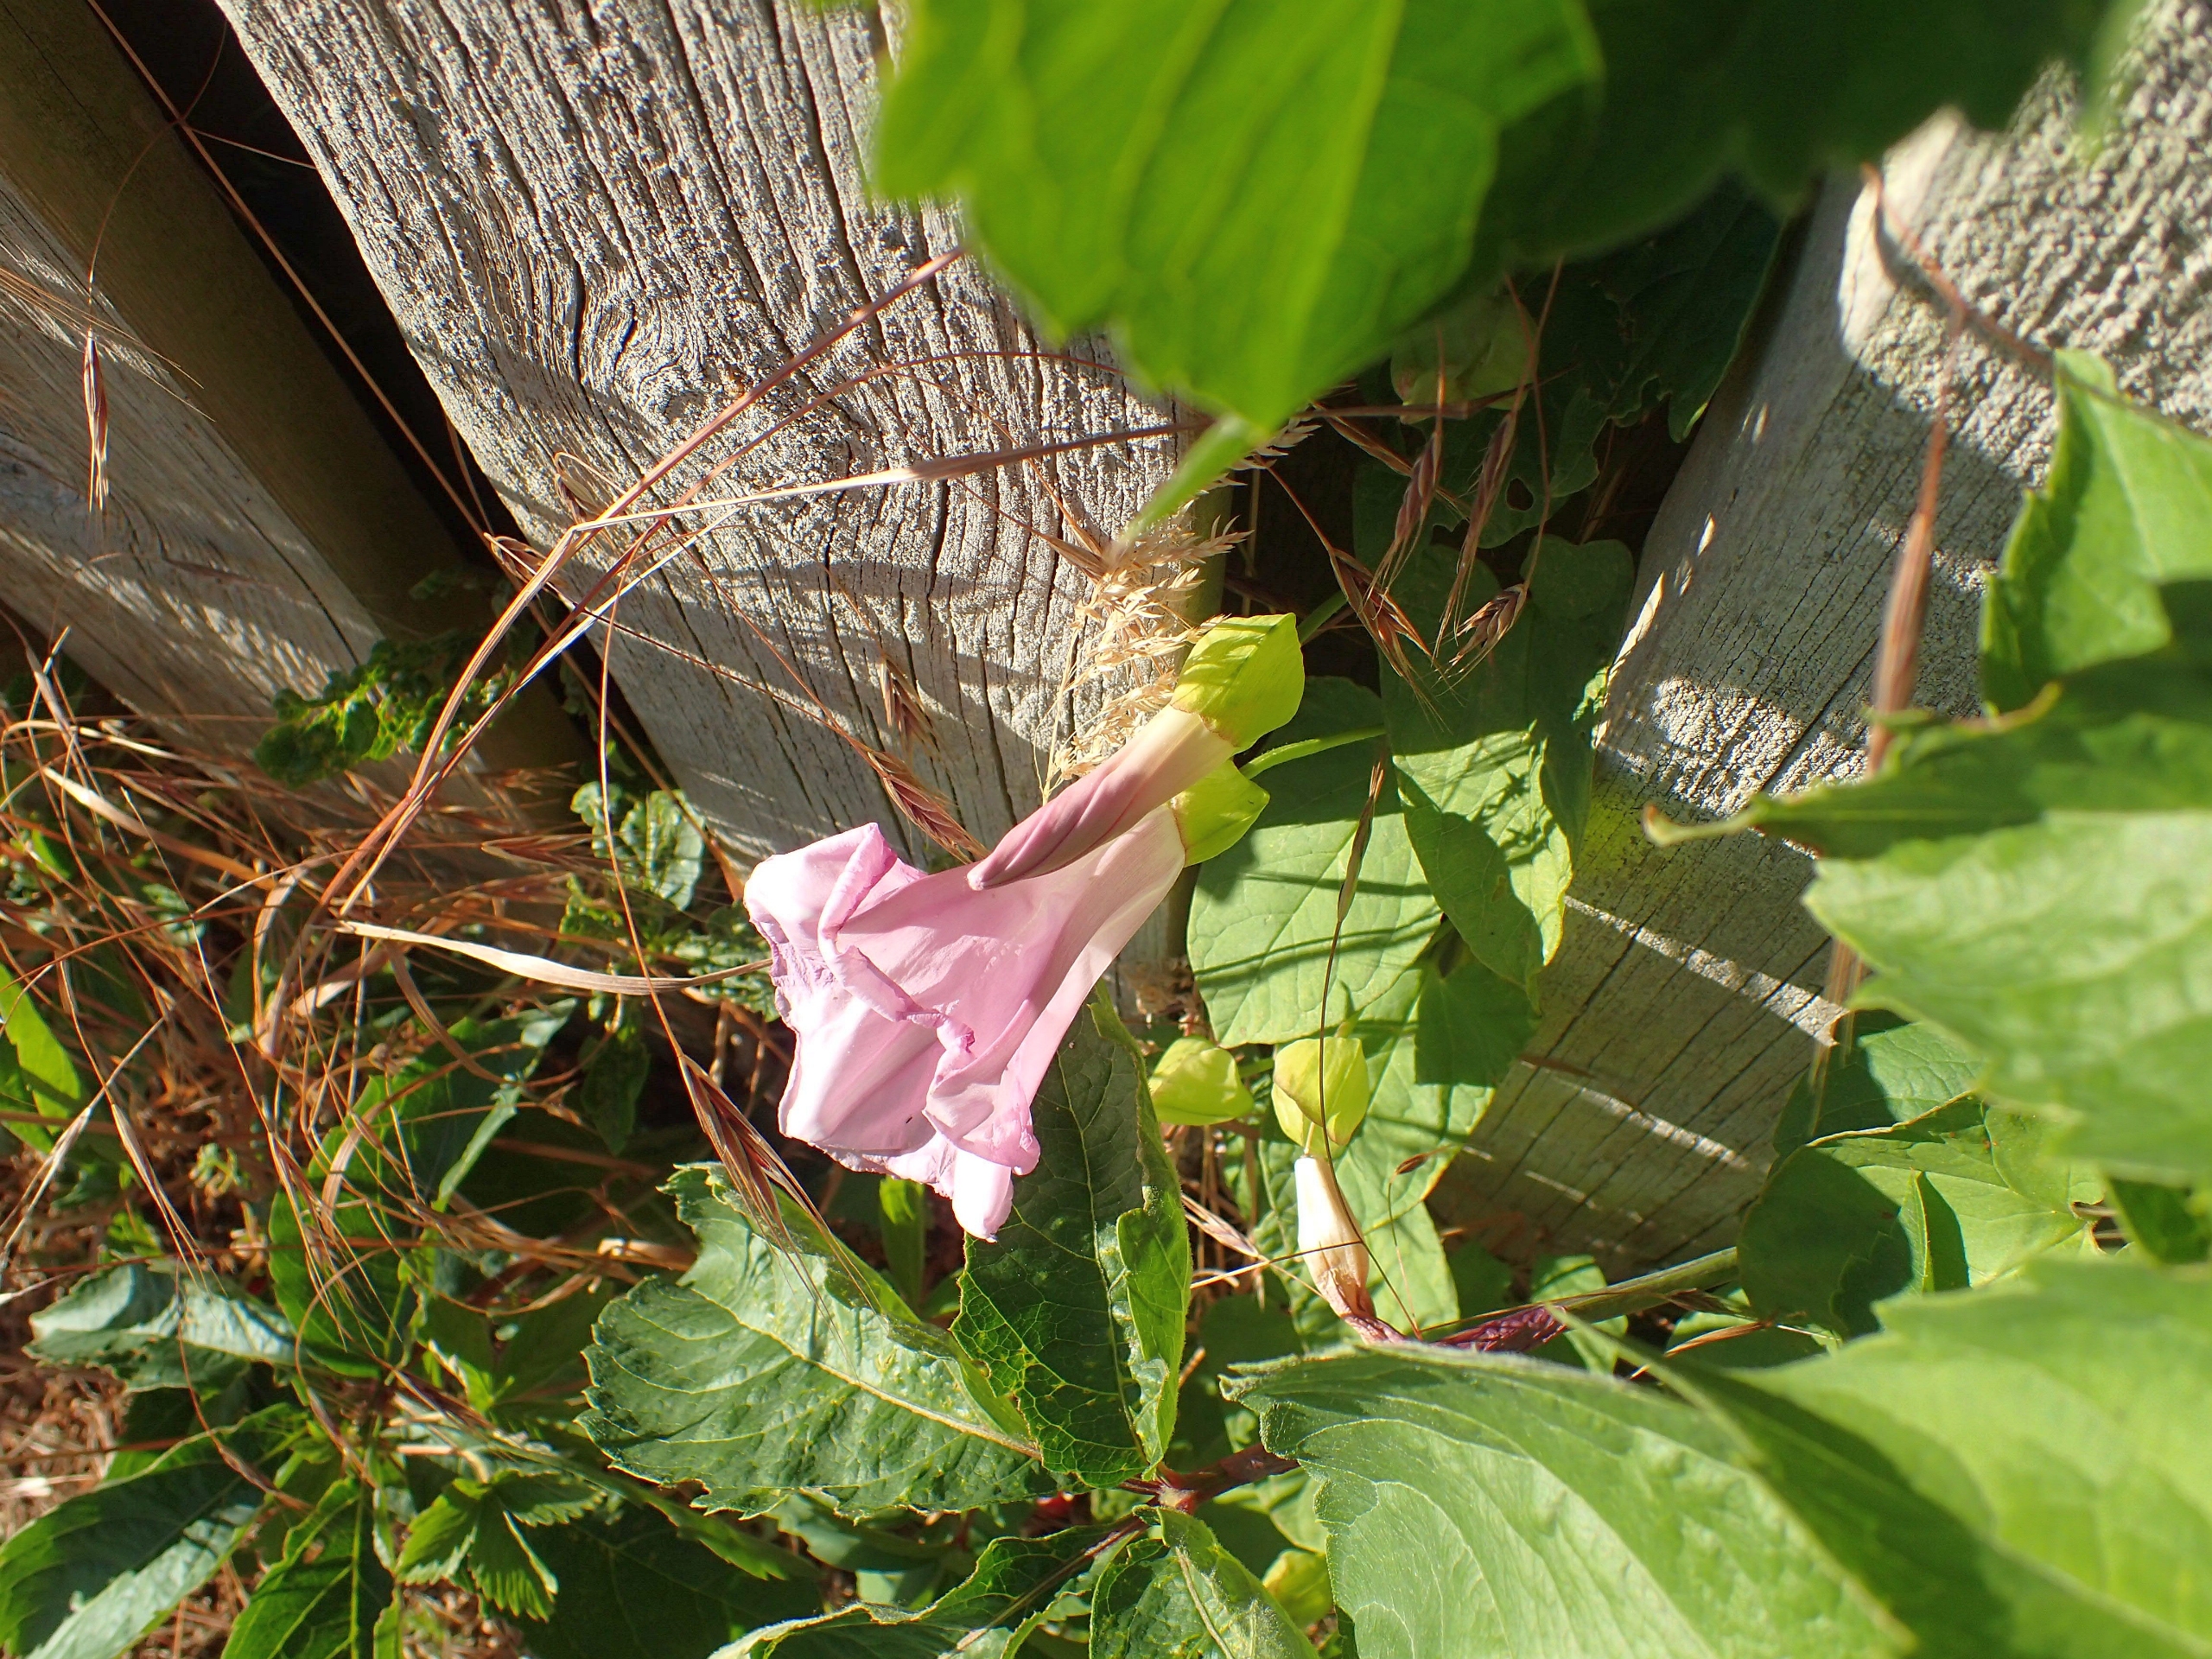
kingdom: Plantae
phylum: Tracheophyta
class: Magnoliopsida
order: Solanales
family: Convolvulaceae
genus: Calystegia
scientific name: Calystegia pulchra
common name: Have-snerle
